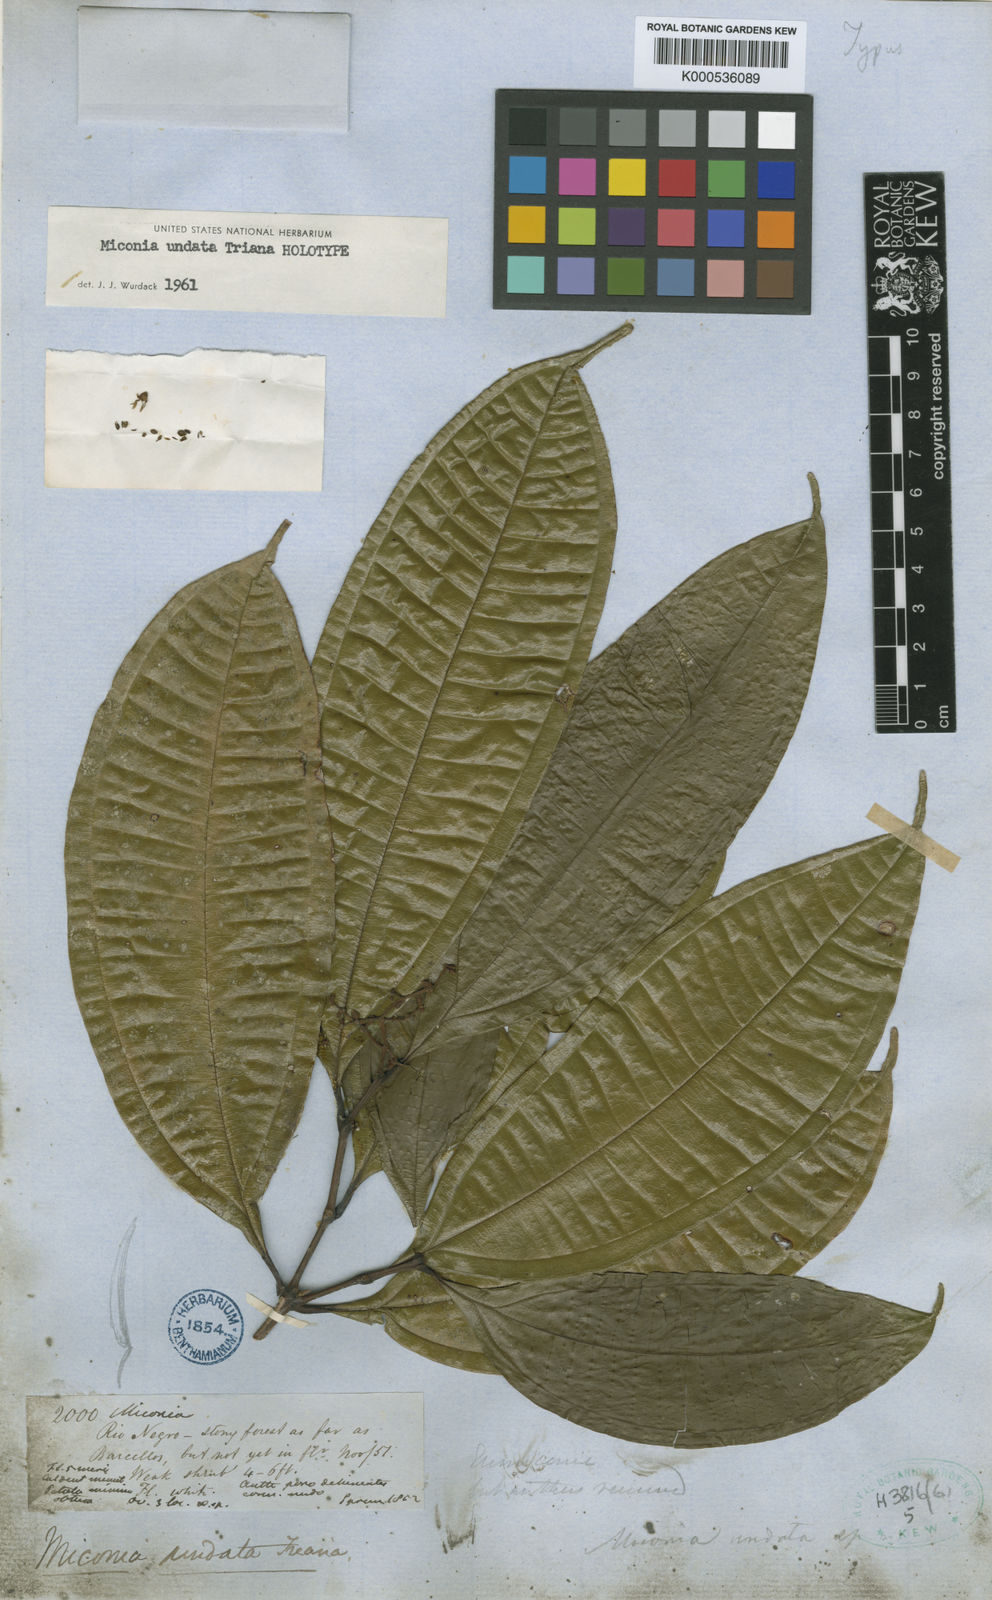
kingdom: Plantae
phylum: Tracheophyta
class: Magnoliopsida
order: Myrtales
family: Melastomataceae
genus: Miconia
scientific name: Miconia undata
